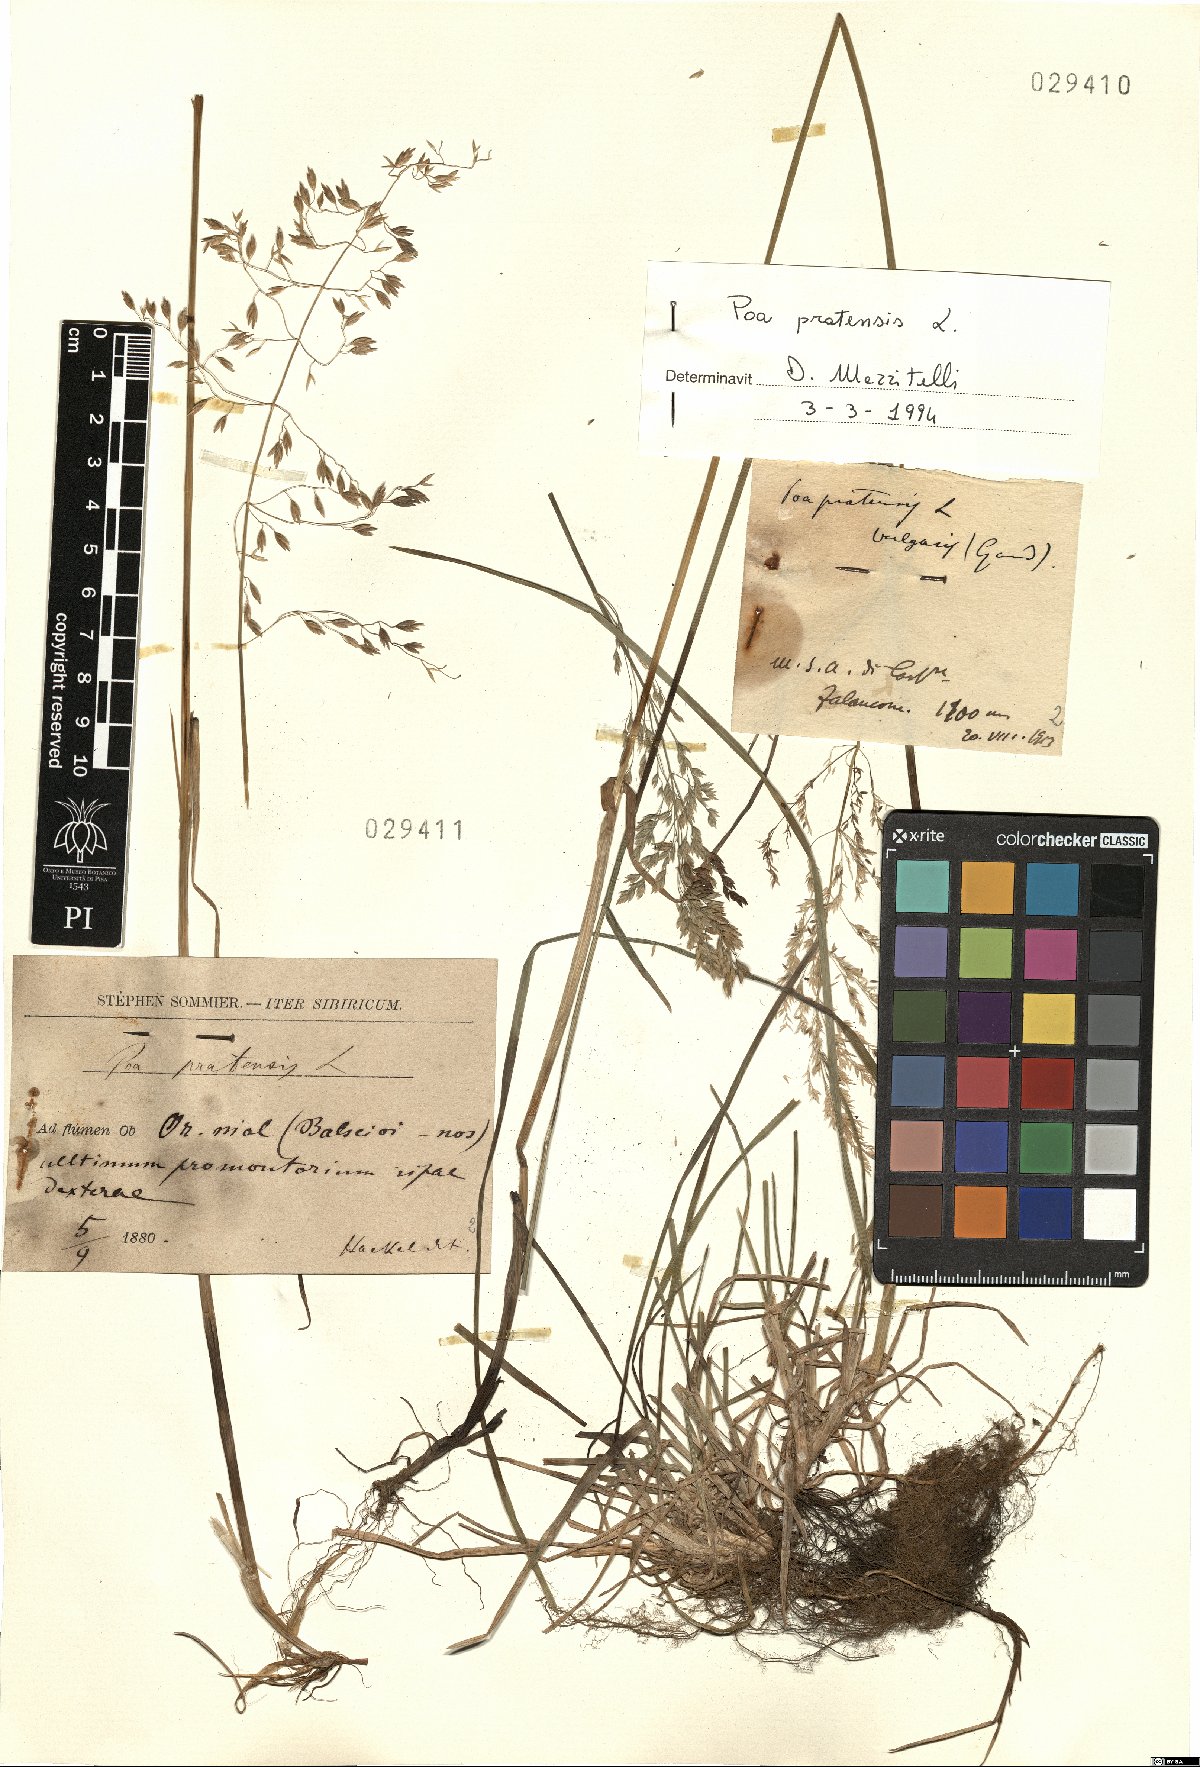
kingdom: Plantae
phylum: Tracheophyta
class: Liliopsida
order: Poales
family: Poaceae
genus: Poa
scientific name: Poa pratensis
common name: Kentucky bluegrass
